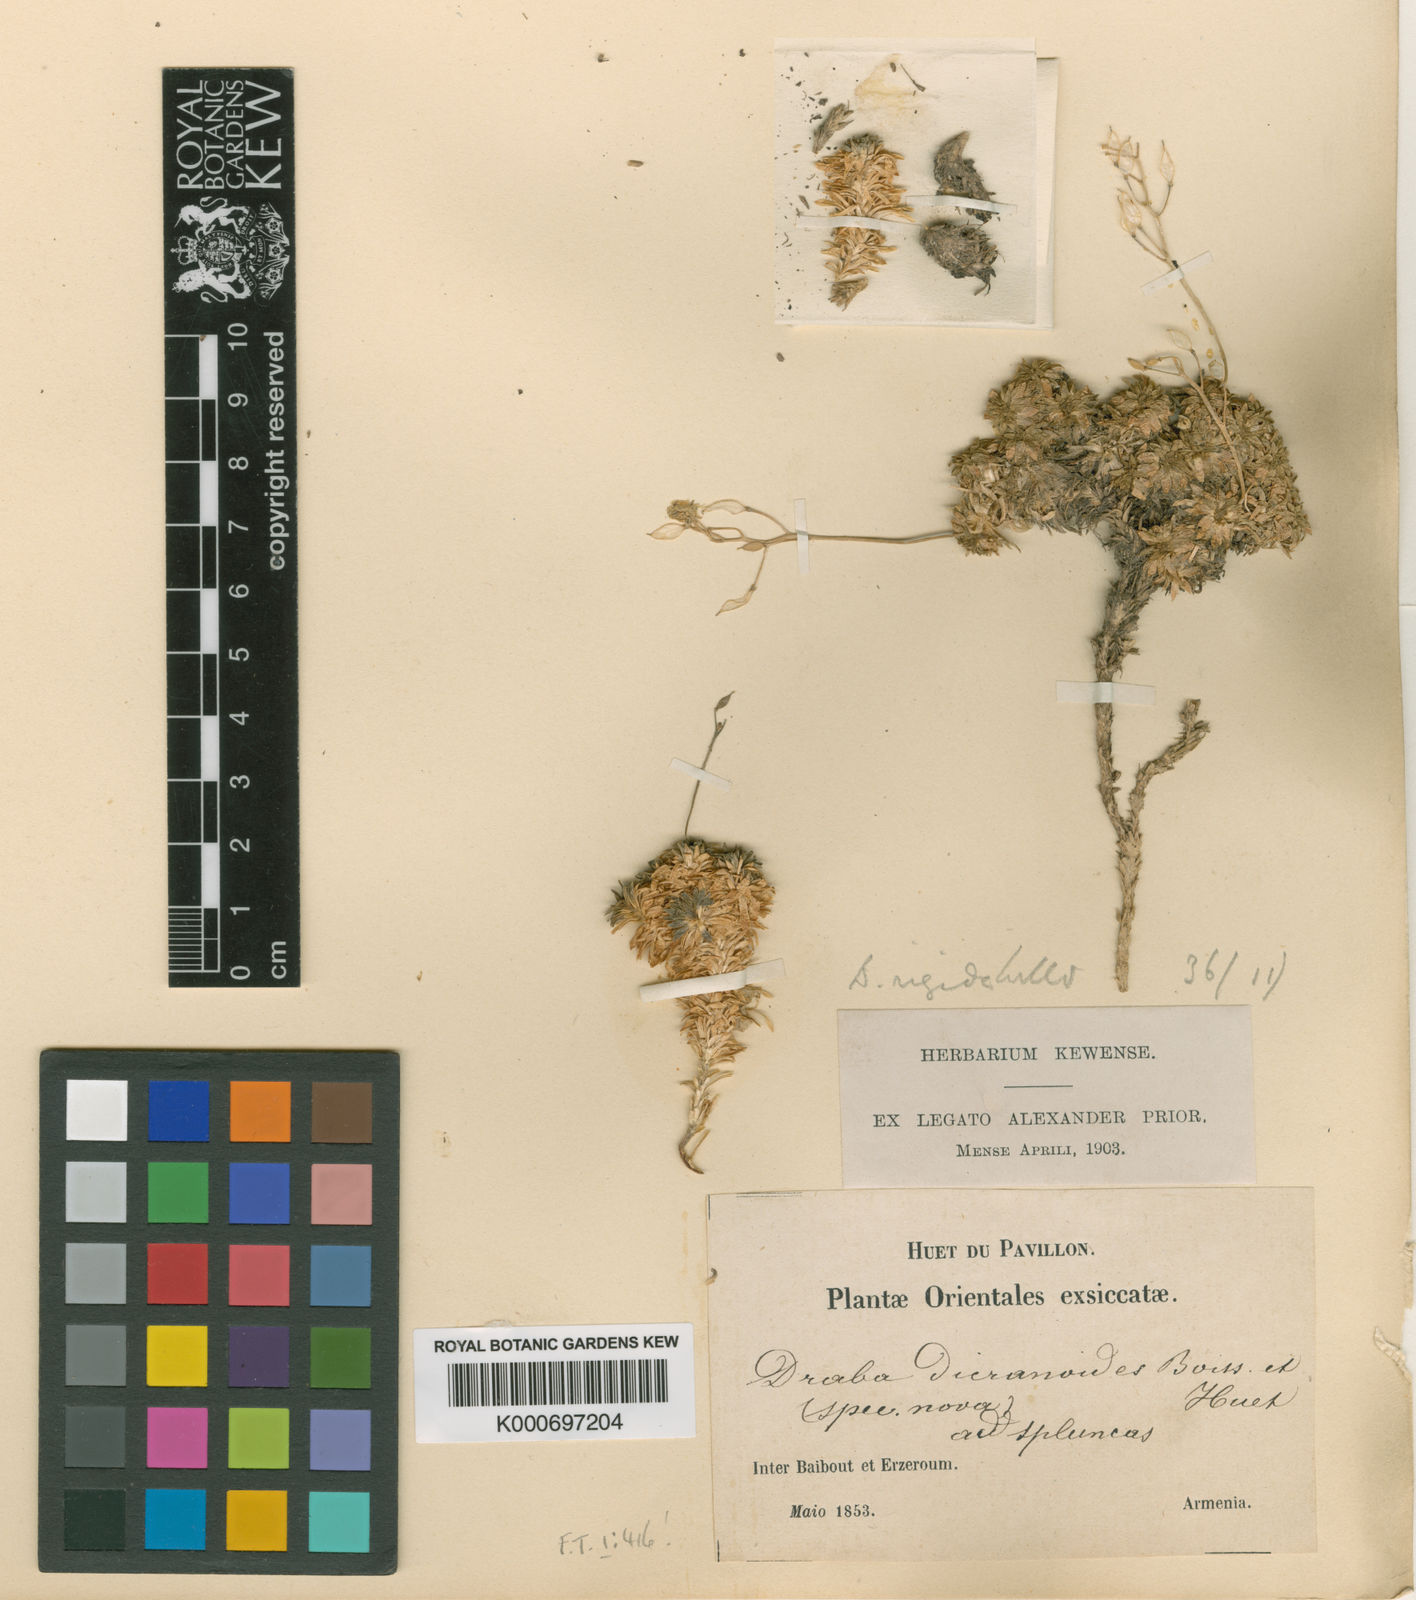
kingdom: Plantae
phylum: Tracheophyta
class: Magnoliopsida
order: Brassicales
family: Brassicaceae
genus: Draba
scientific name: Draba rigida
